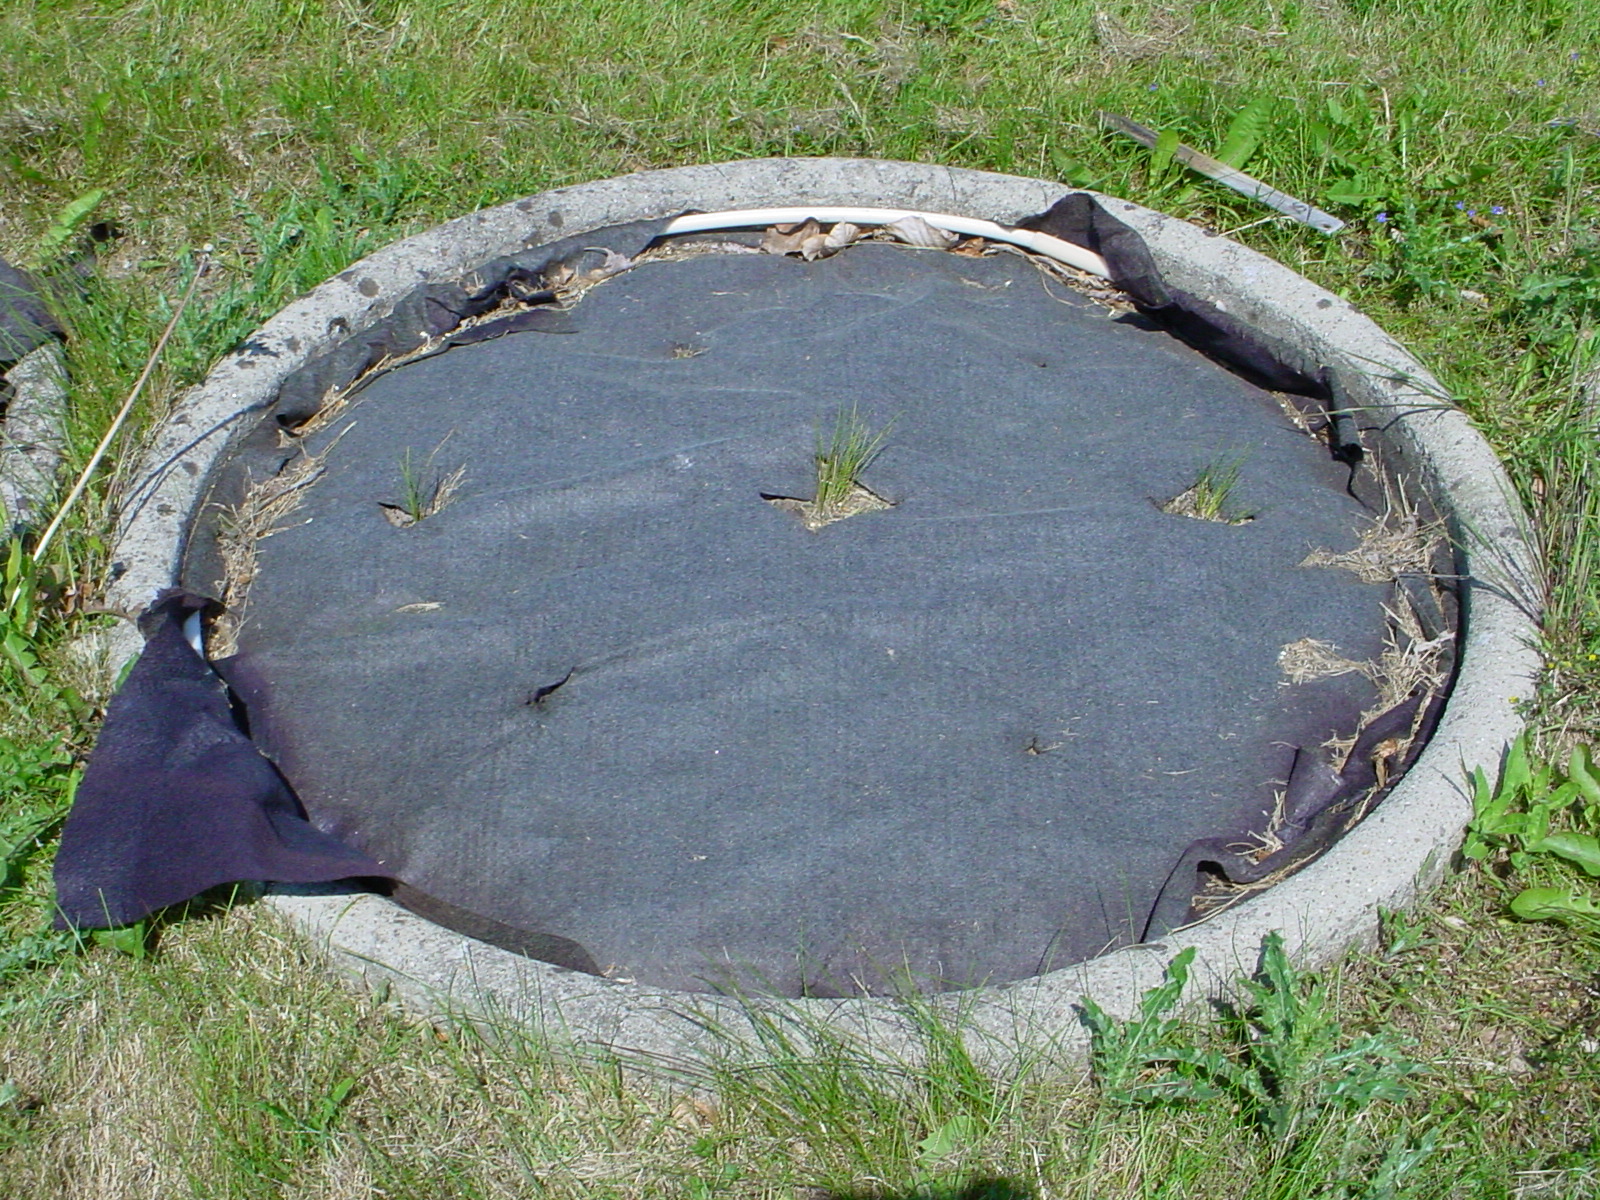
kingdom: Plantae
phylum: Tracheophyta
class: Liliopsida
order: Asparagales
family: Amaryllidaceae
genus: Allium
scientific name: Allium schoenoprasum
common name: Chives
